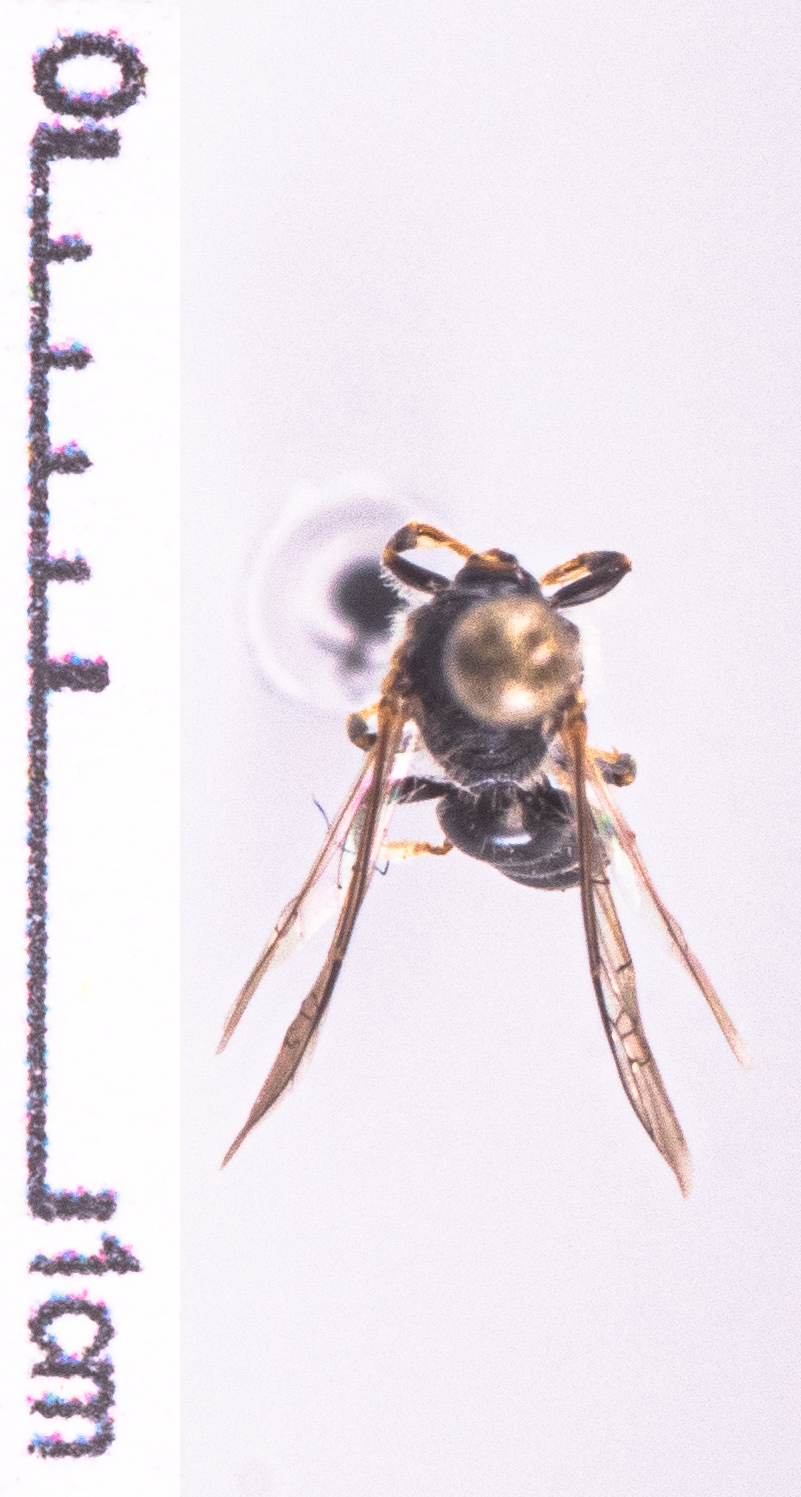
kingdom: Animalia
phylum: Arthropoda
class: Insecta
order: Hymenoptera
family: Halictidae
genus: Lasioglossum
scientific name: Lasioglossum fulvicorne
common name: Chalk furrow bee
